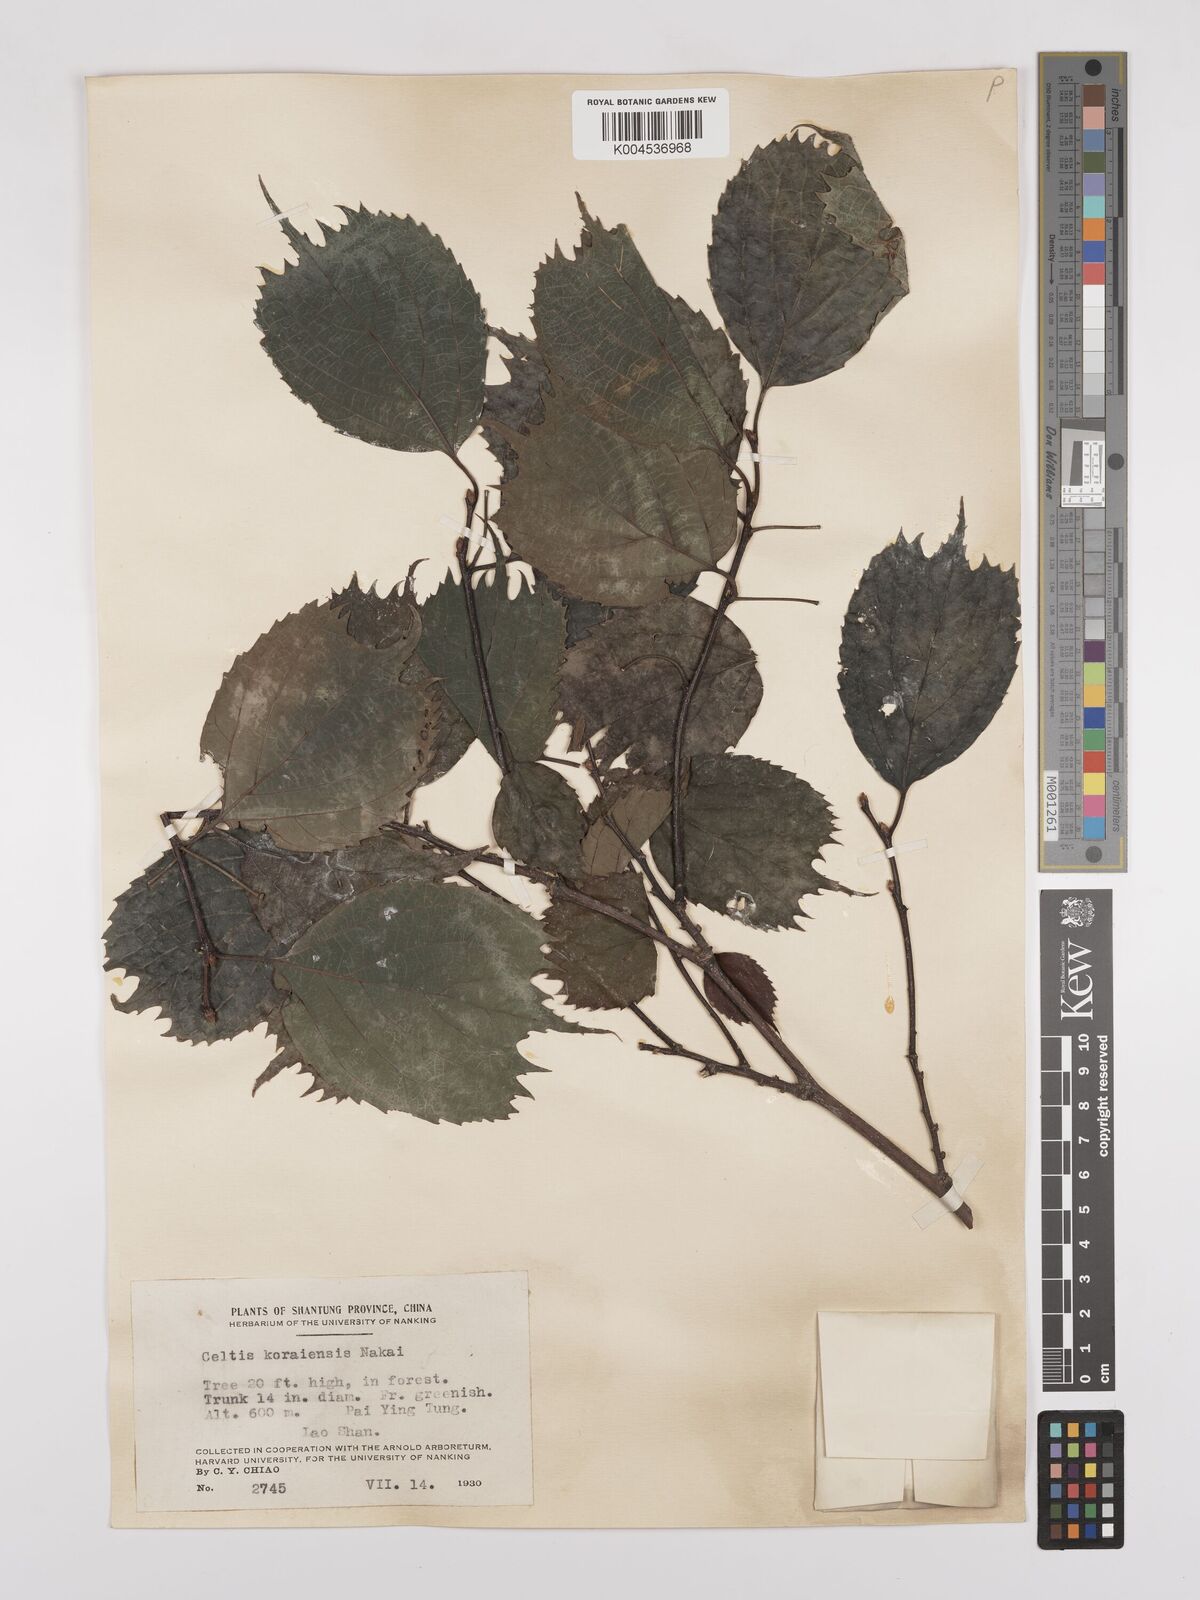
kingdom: Plantae
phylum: Tracheophyta
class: Magnoliopsida
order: Rosales
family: Cannabaceae
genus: Celtis
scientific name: Celtis koraiensis
